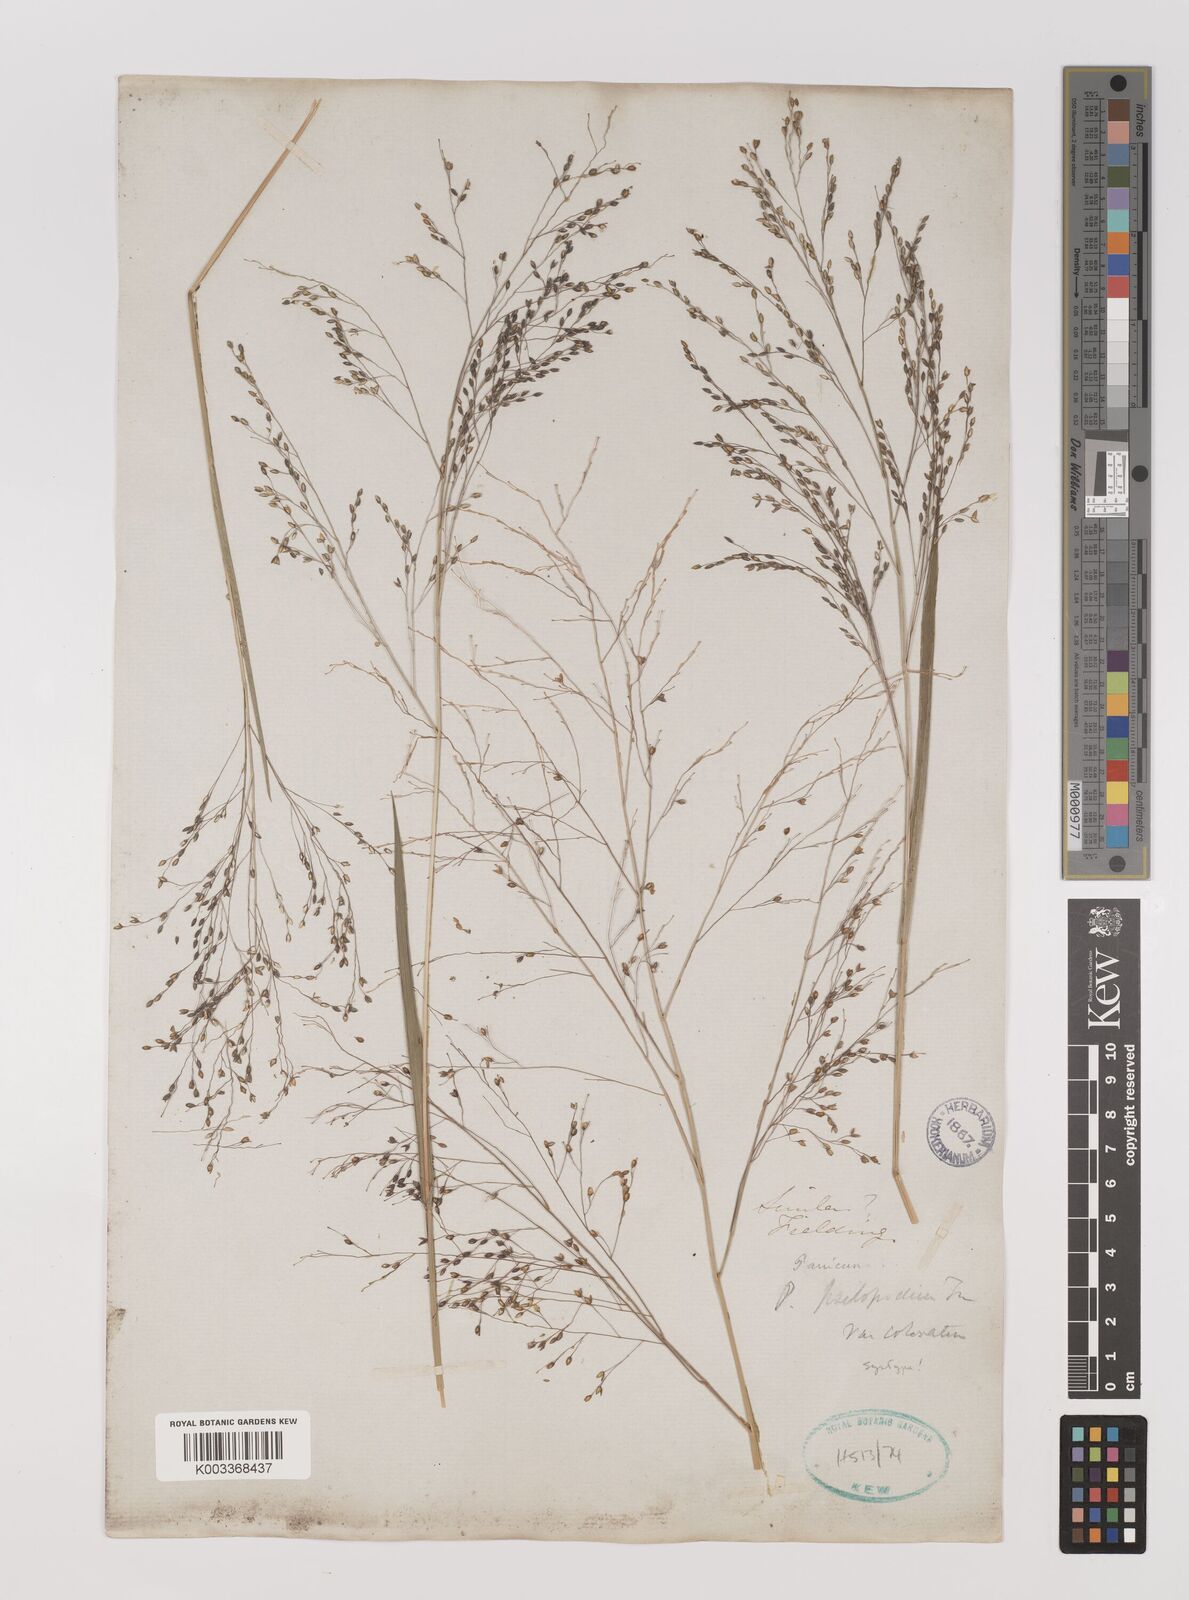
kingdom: Plantae
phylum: Tracheophyta
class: Liliopsida
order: Poales
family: Poaceae
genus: Panicum
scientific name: Panicum sumatrense
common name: Little millet
